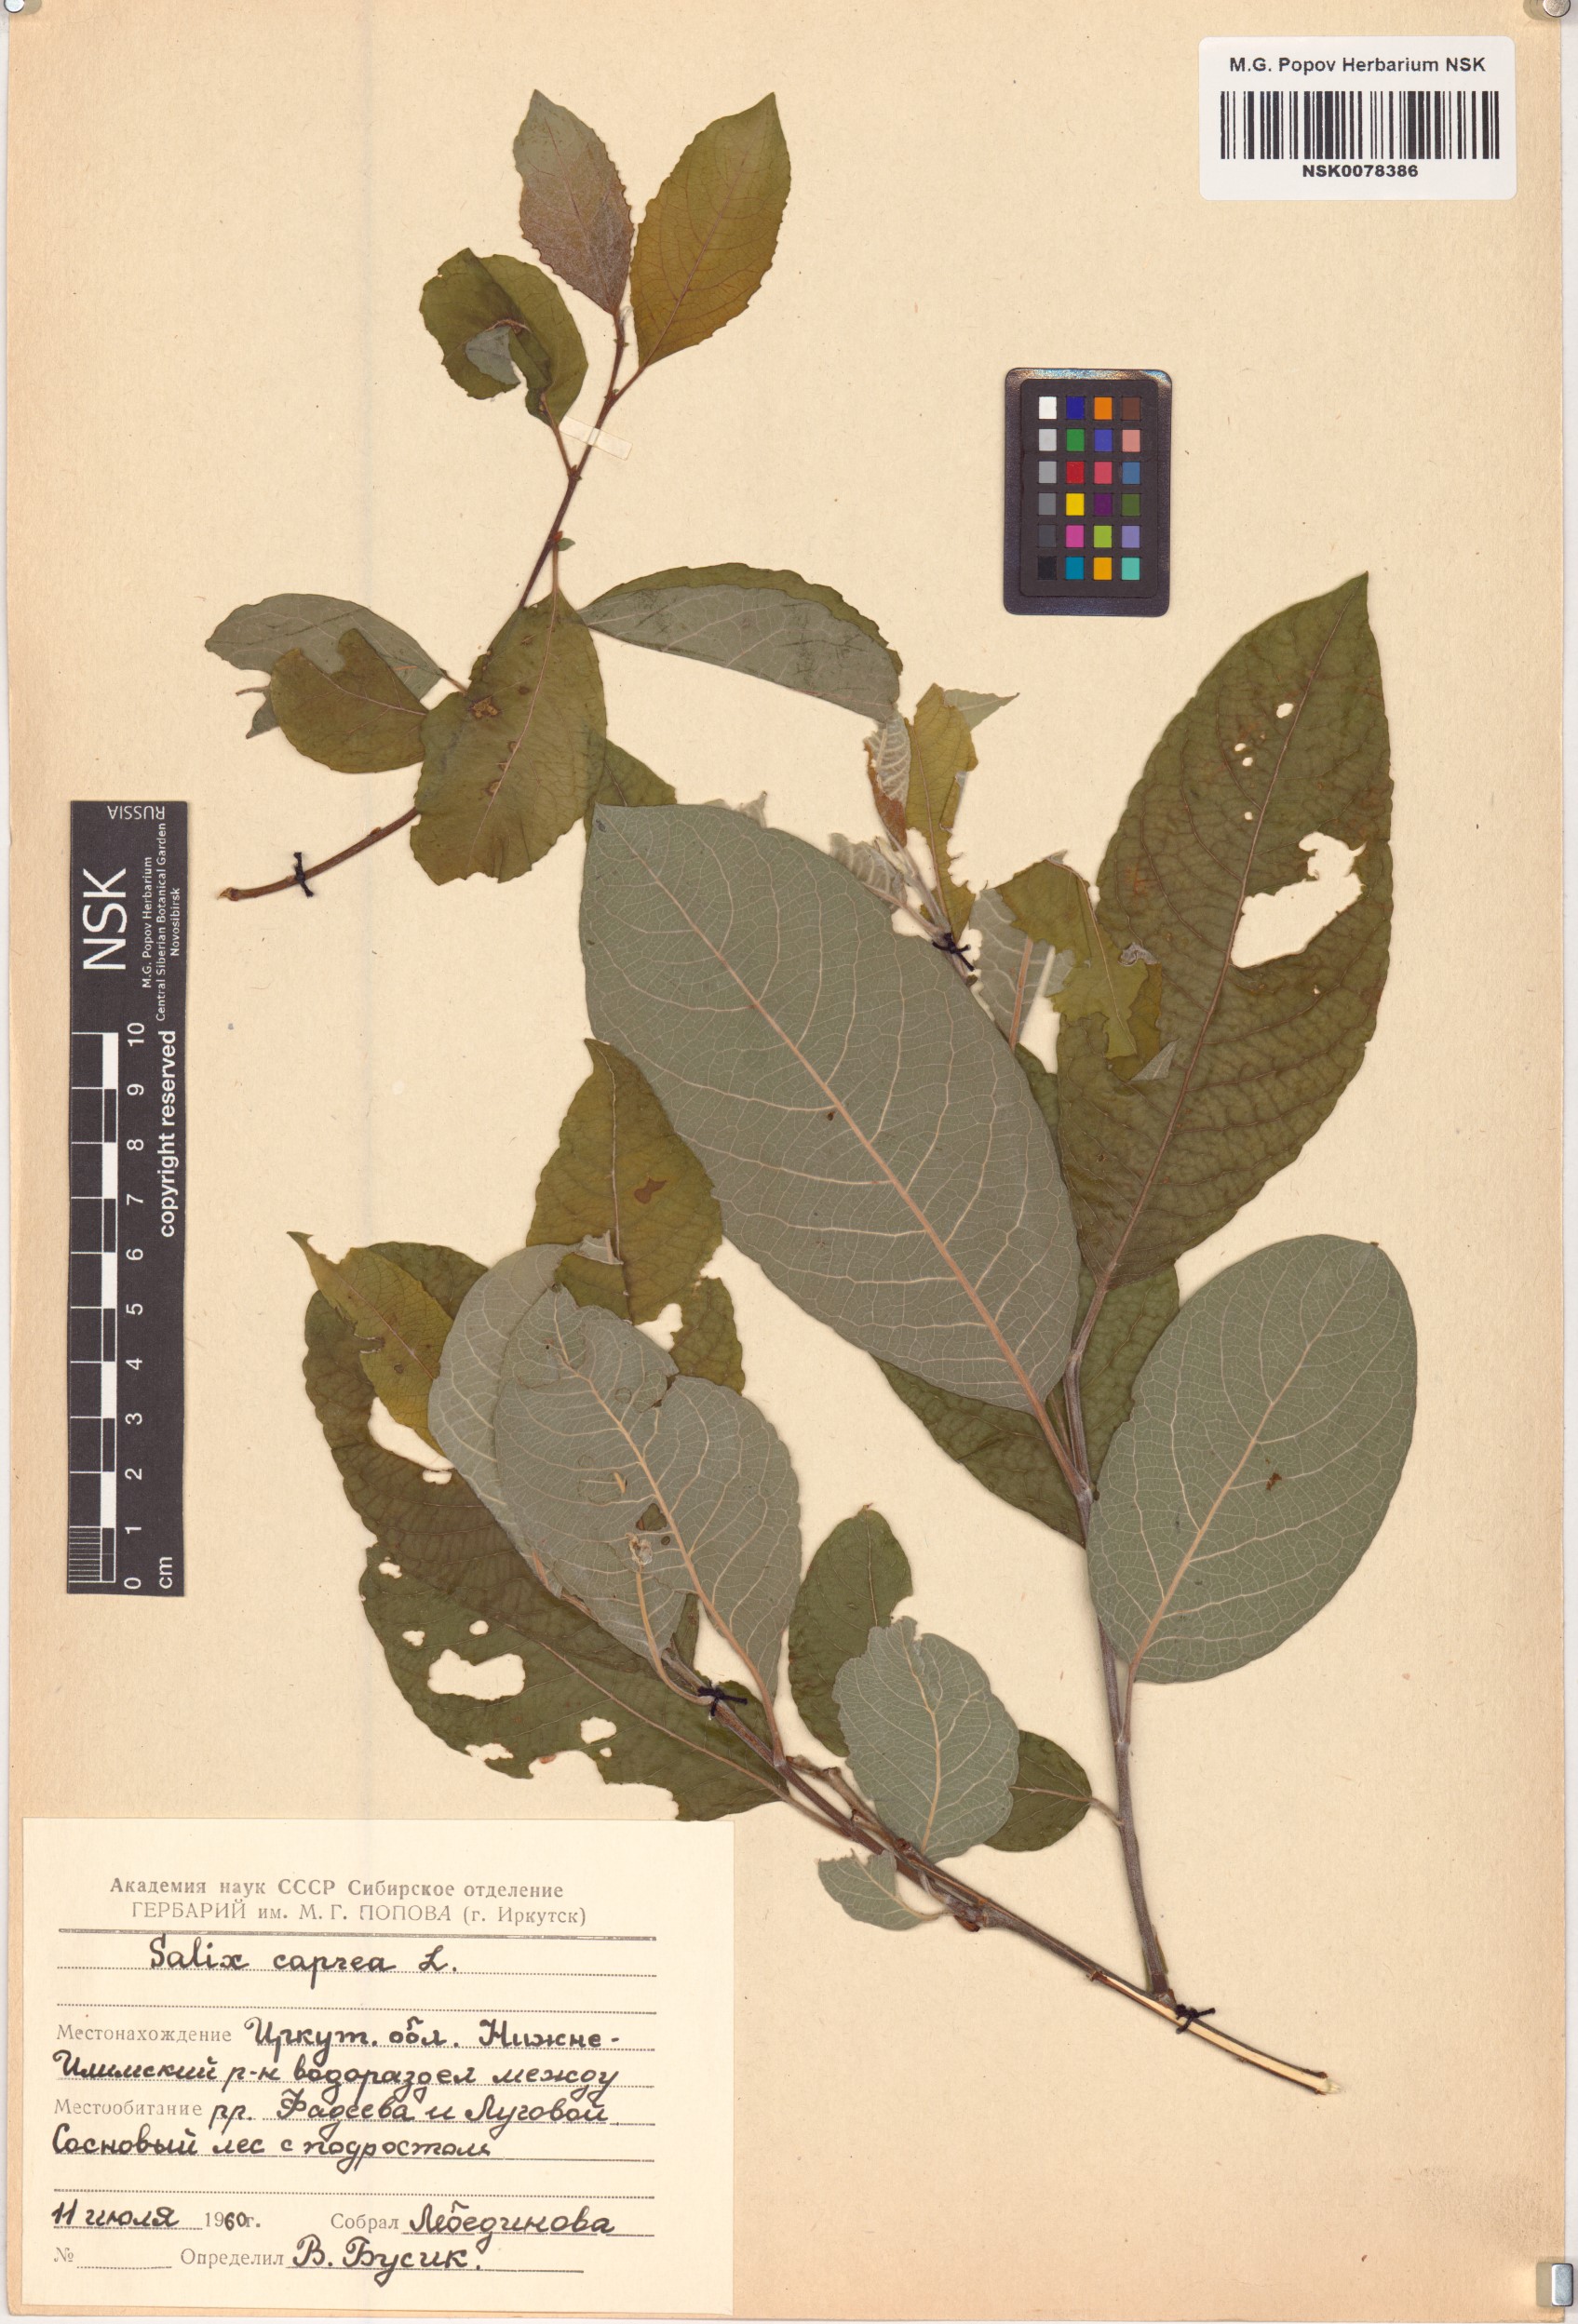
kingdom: Plantae
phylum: Tracheophyta
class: Magnoliopsida
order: Malpighiales
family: Salicaceae
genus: Salix
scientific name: Salix caprea
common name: Goat willow
